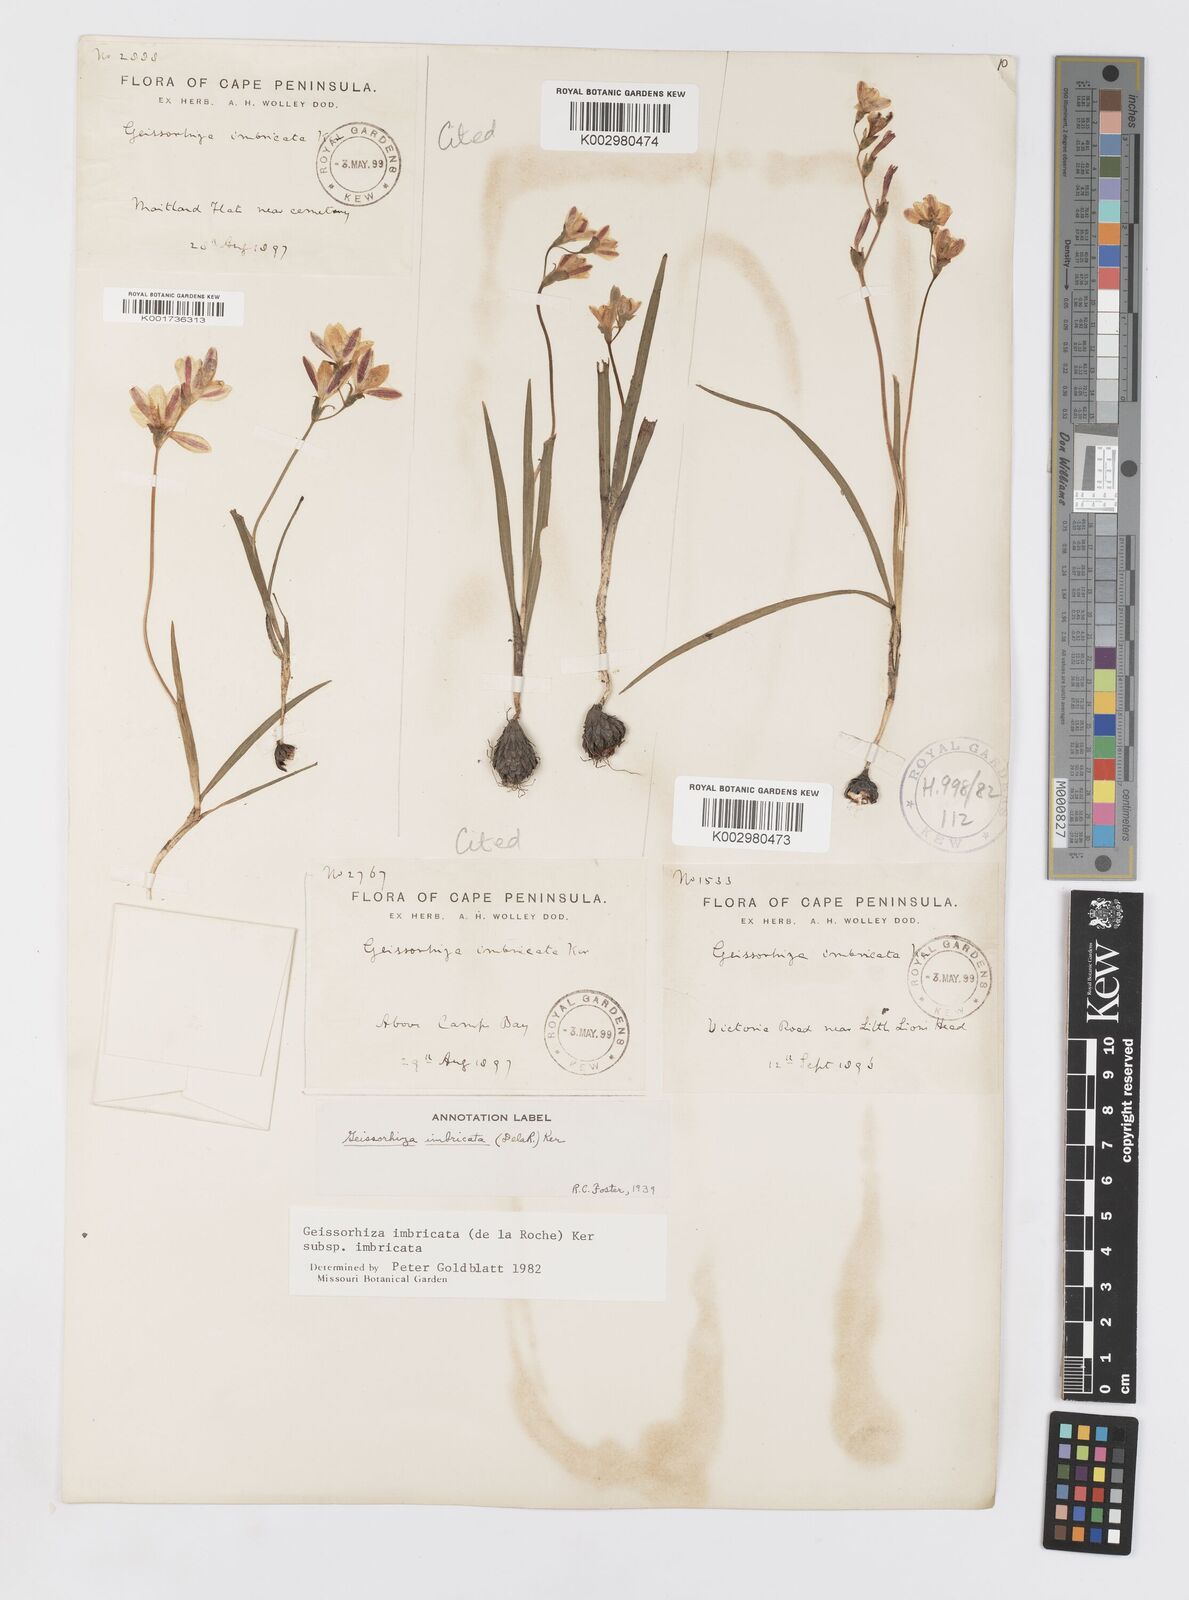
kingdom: Plantae
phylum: Tracheophyta
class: Liliopsida
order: Asparagales
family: Iridaceae
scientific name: Iridaceae
